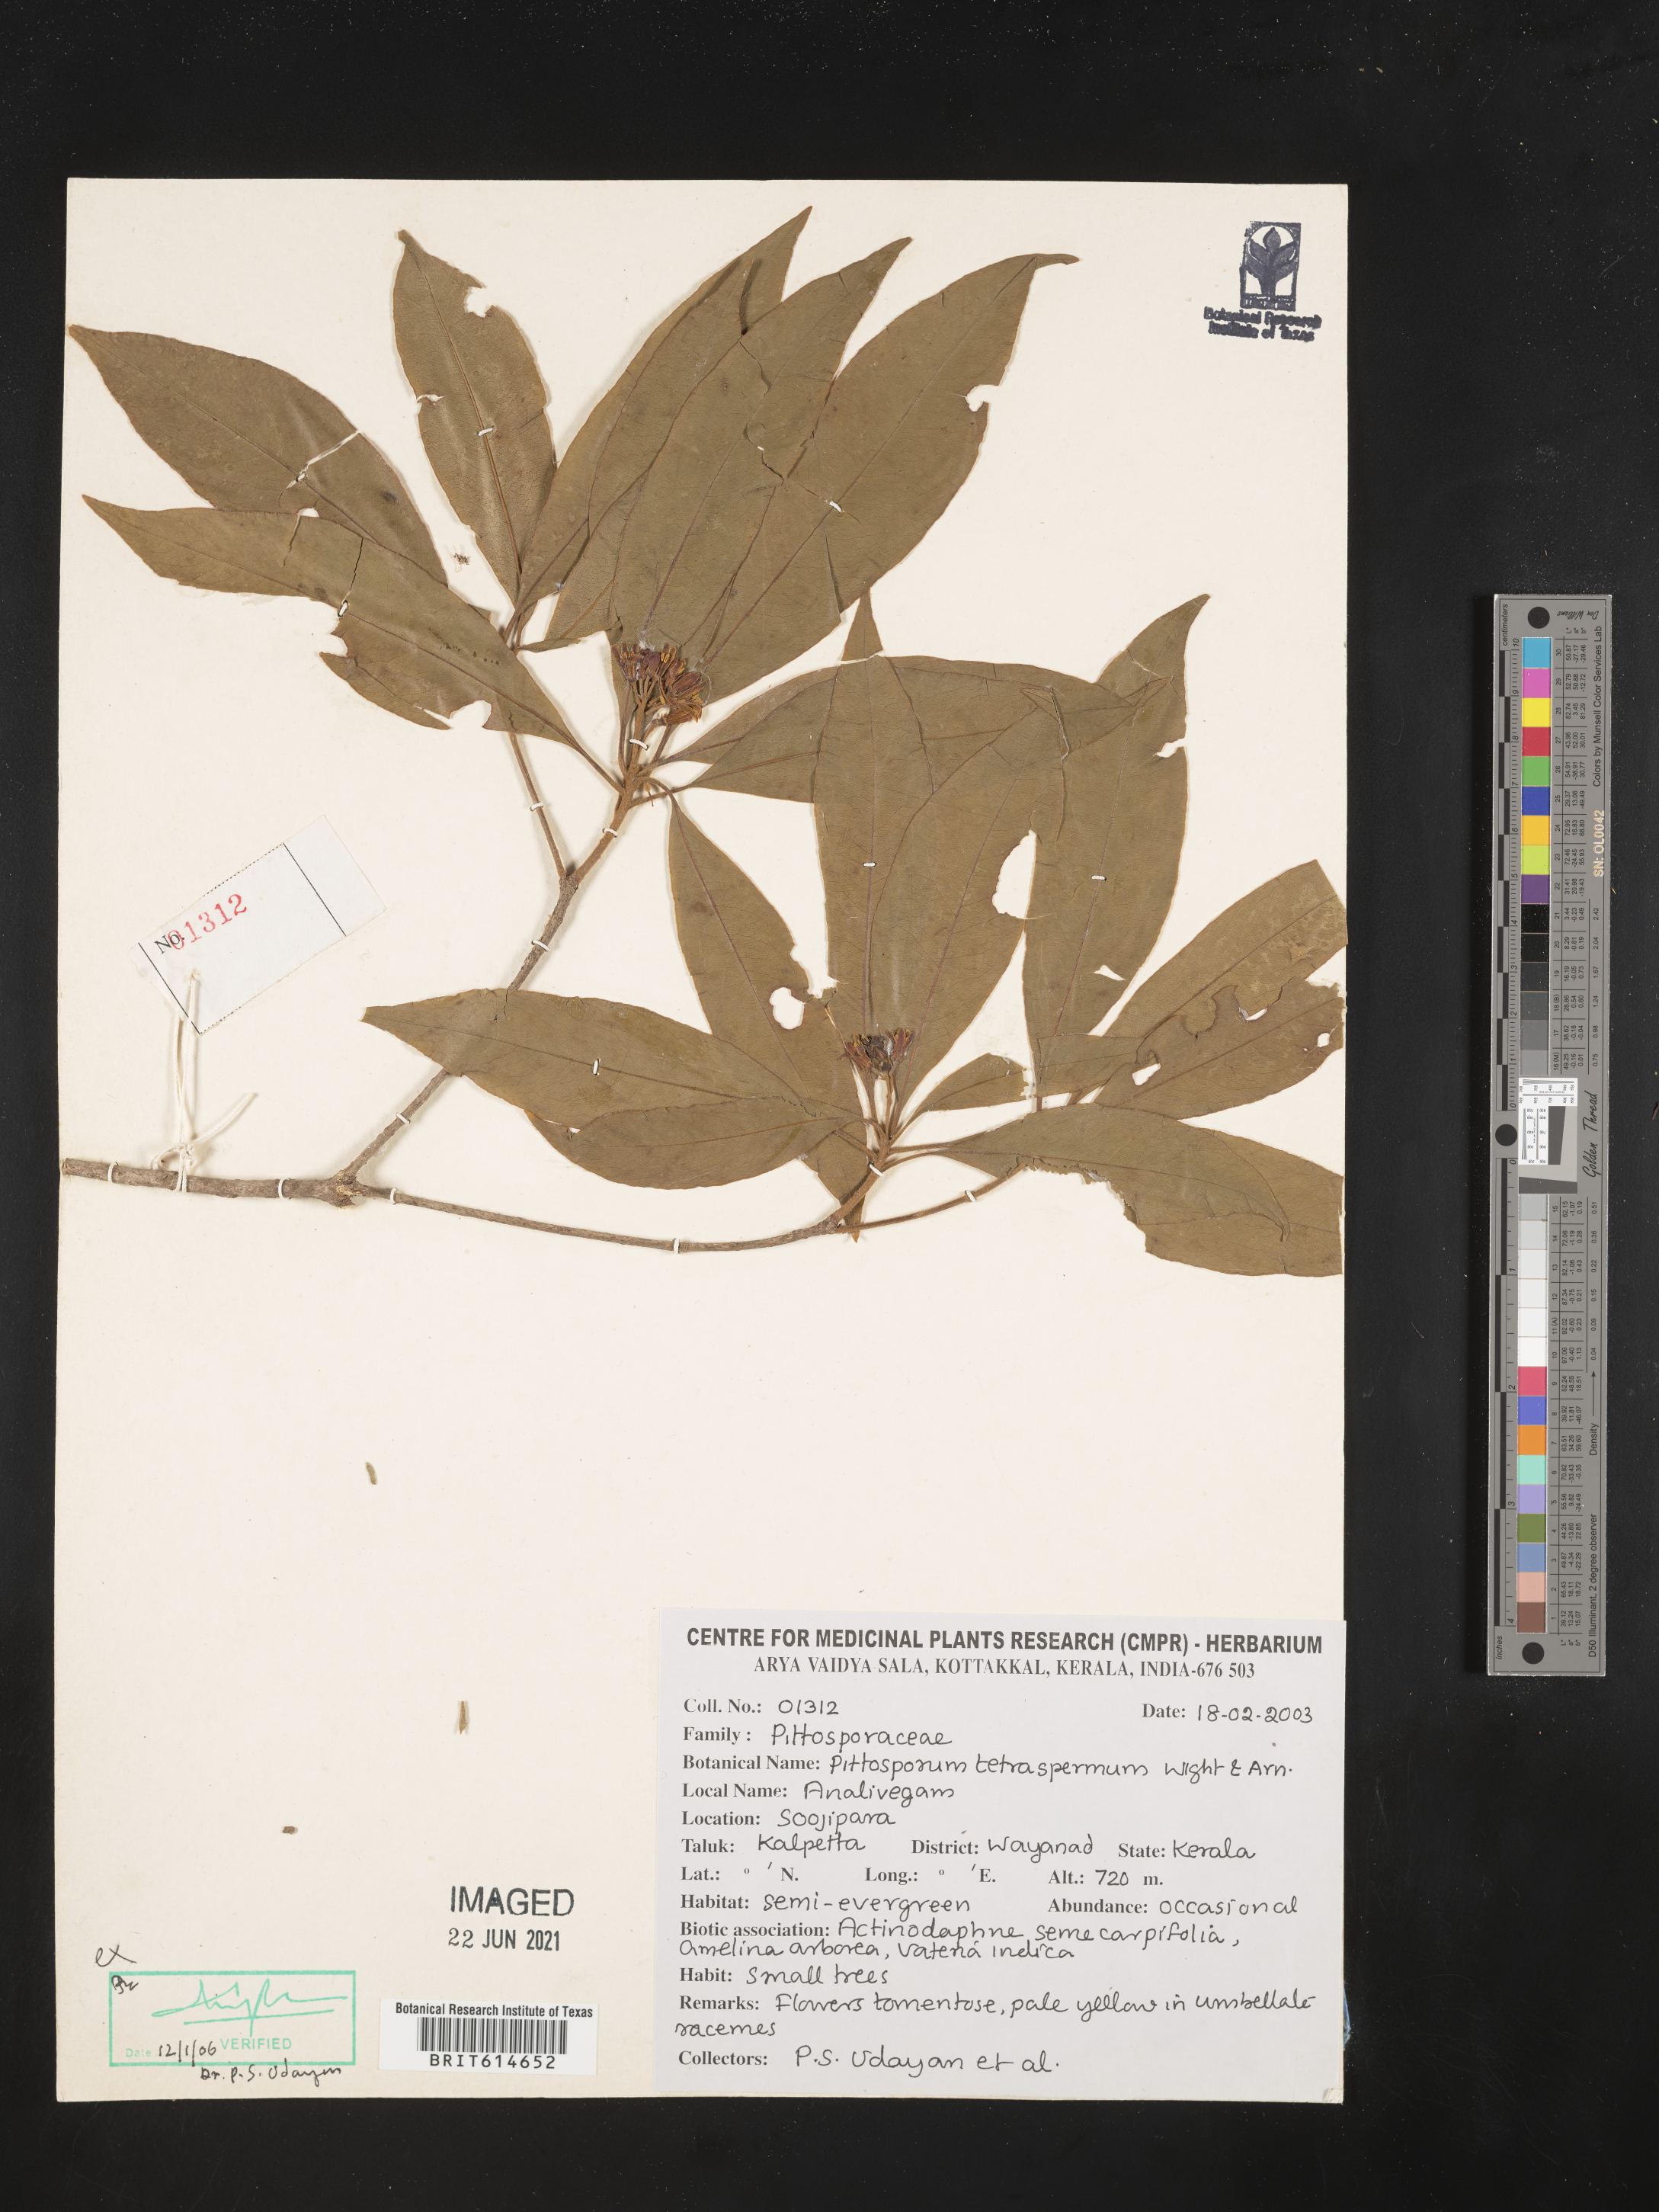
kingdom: Plantae
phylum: Tracheophyta
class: Magnoliopsida
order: Apiales
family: Pittosporaceae
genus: Pittosporum
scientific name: Pittosporum tetraspermum
